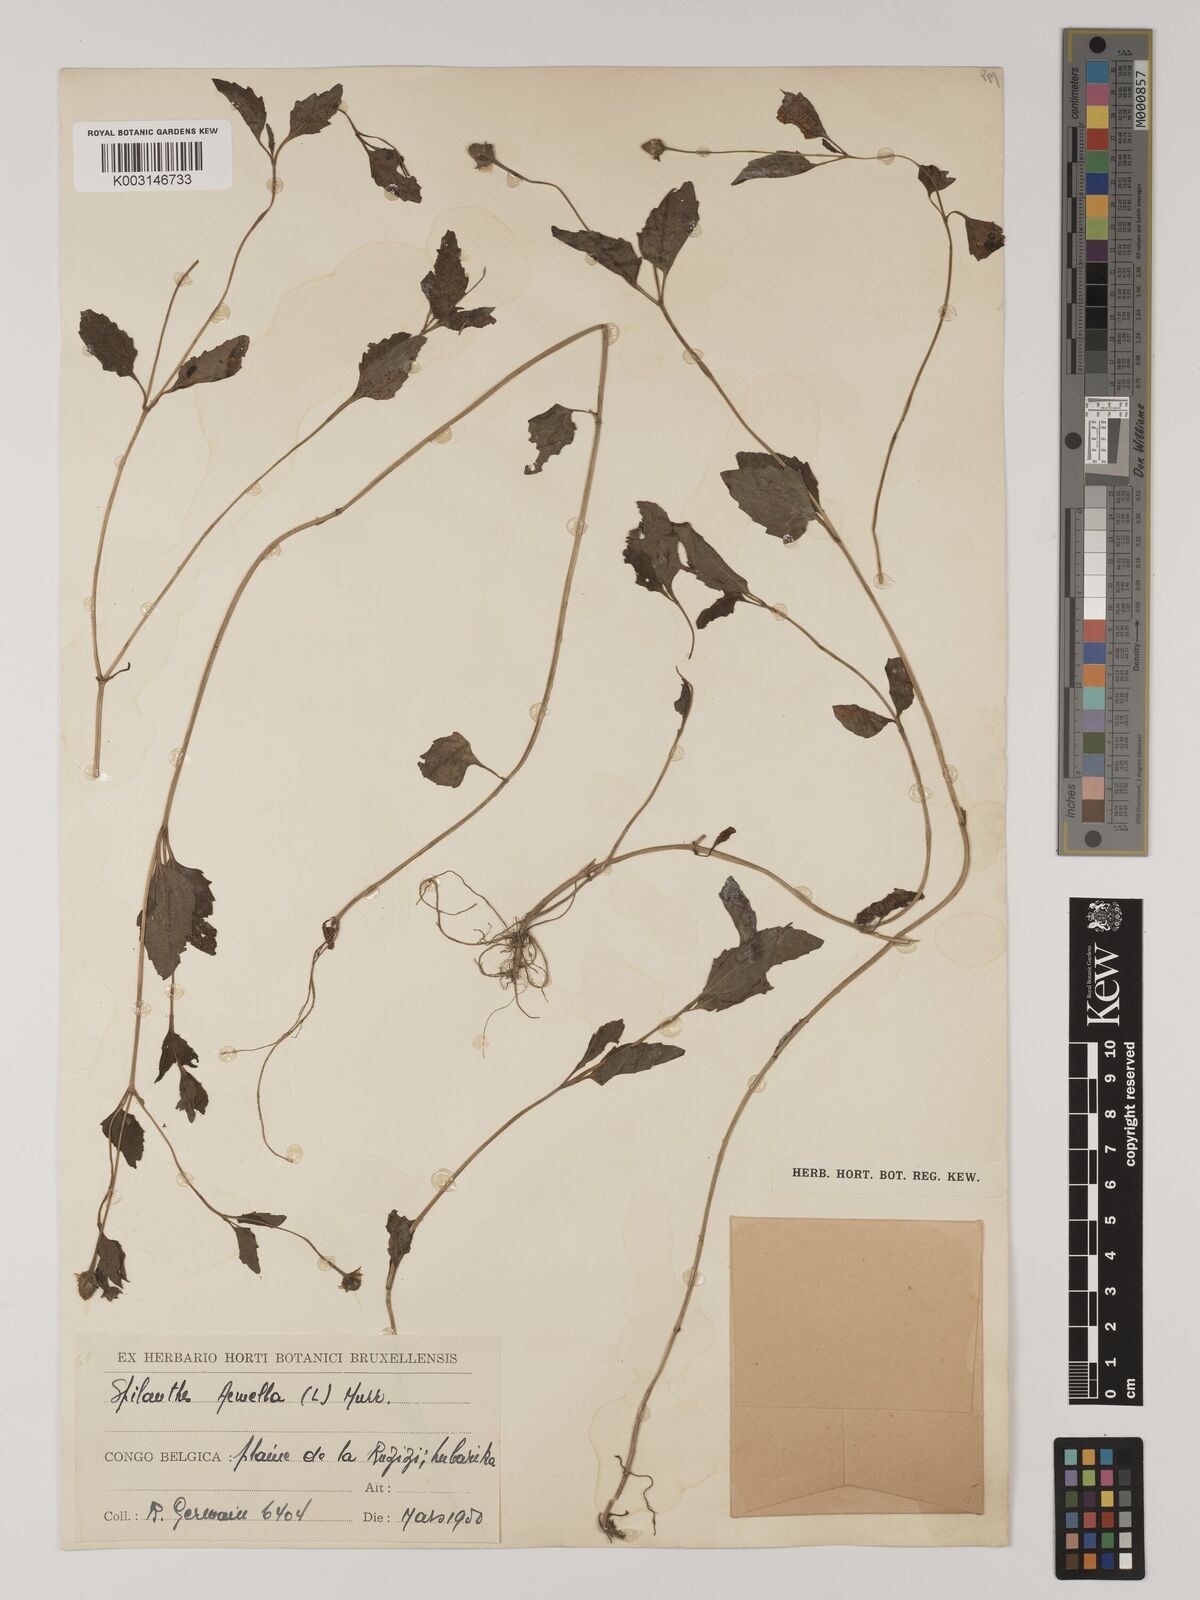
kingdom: Plantae
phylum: Tracheophyta
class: Magnoliopsida
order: Asterales
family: Asteraceae
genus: Blainvillea
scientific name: Blainvillea acmella
